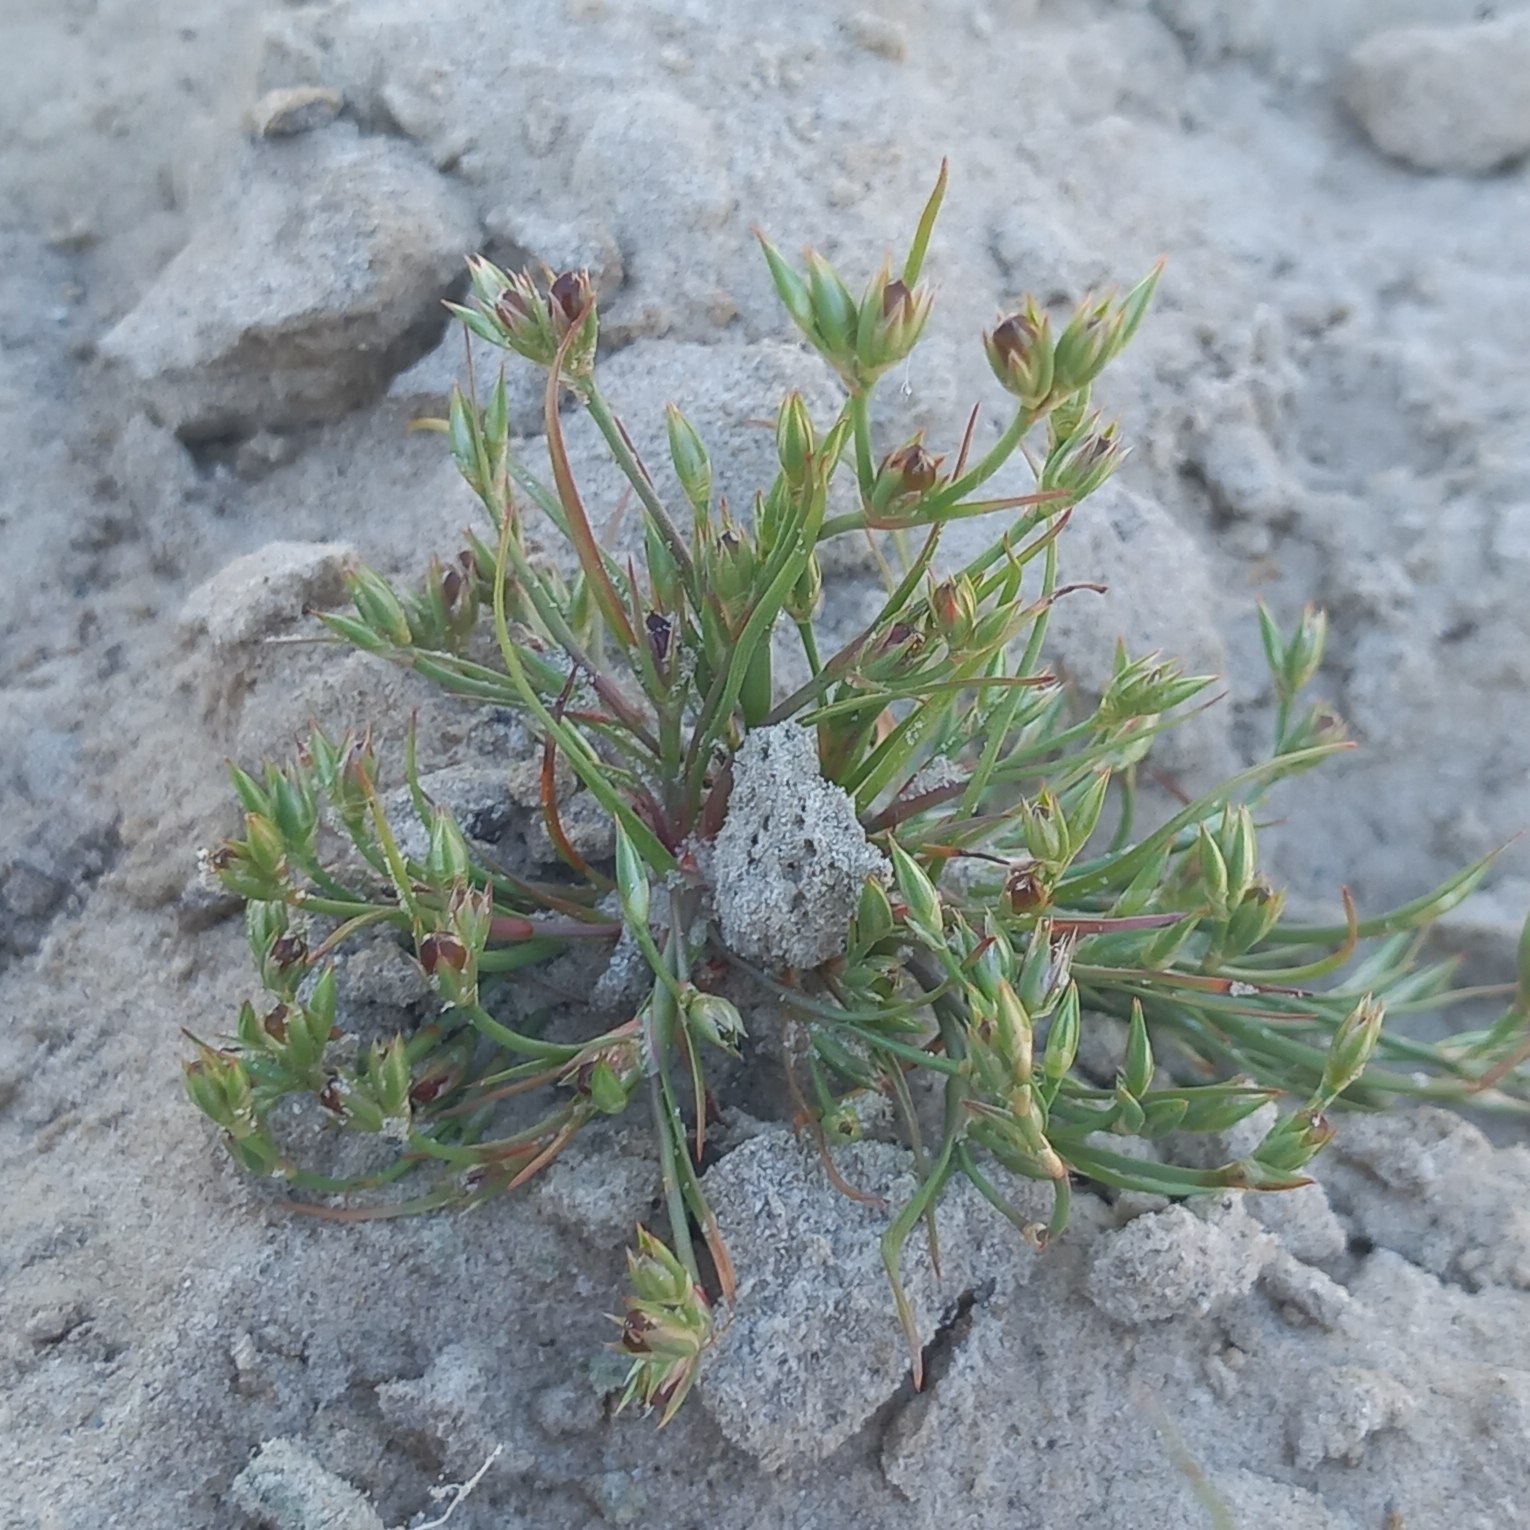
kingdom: Plantae
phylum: Tracheophyta
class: Liliopsida
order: Poales
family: Juncaceae
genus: Juncus
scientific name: Juncus bufonius
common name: Tudse-siv
